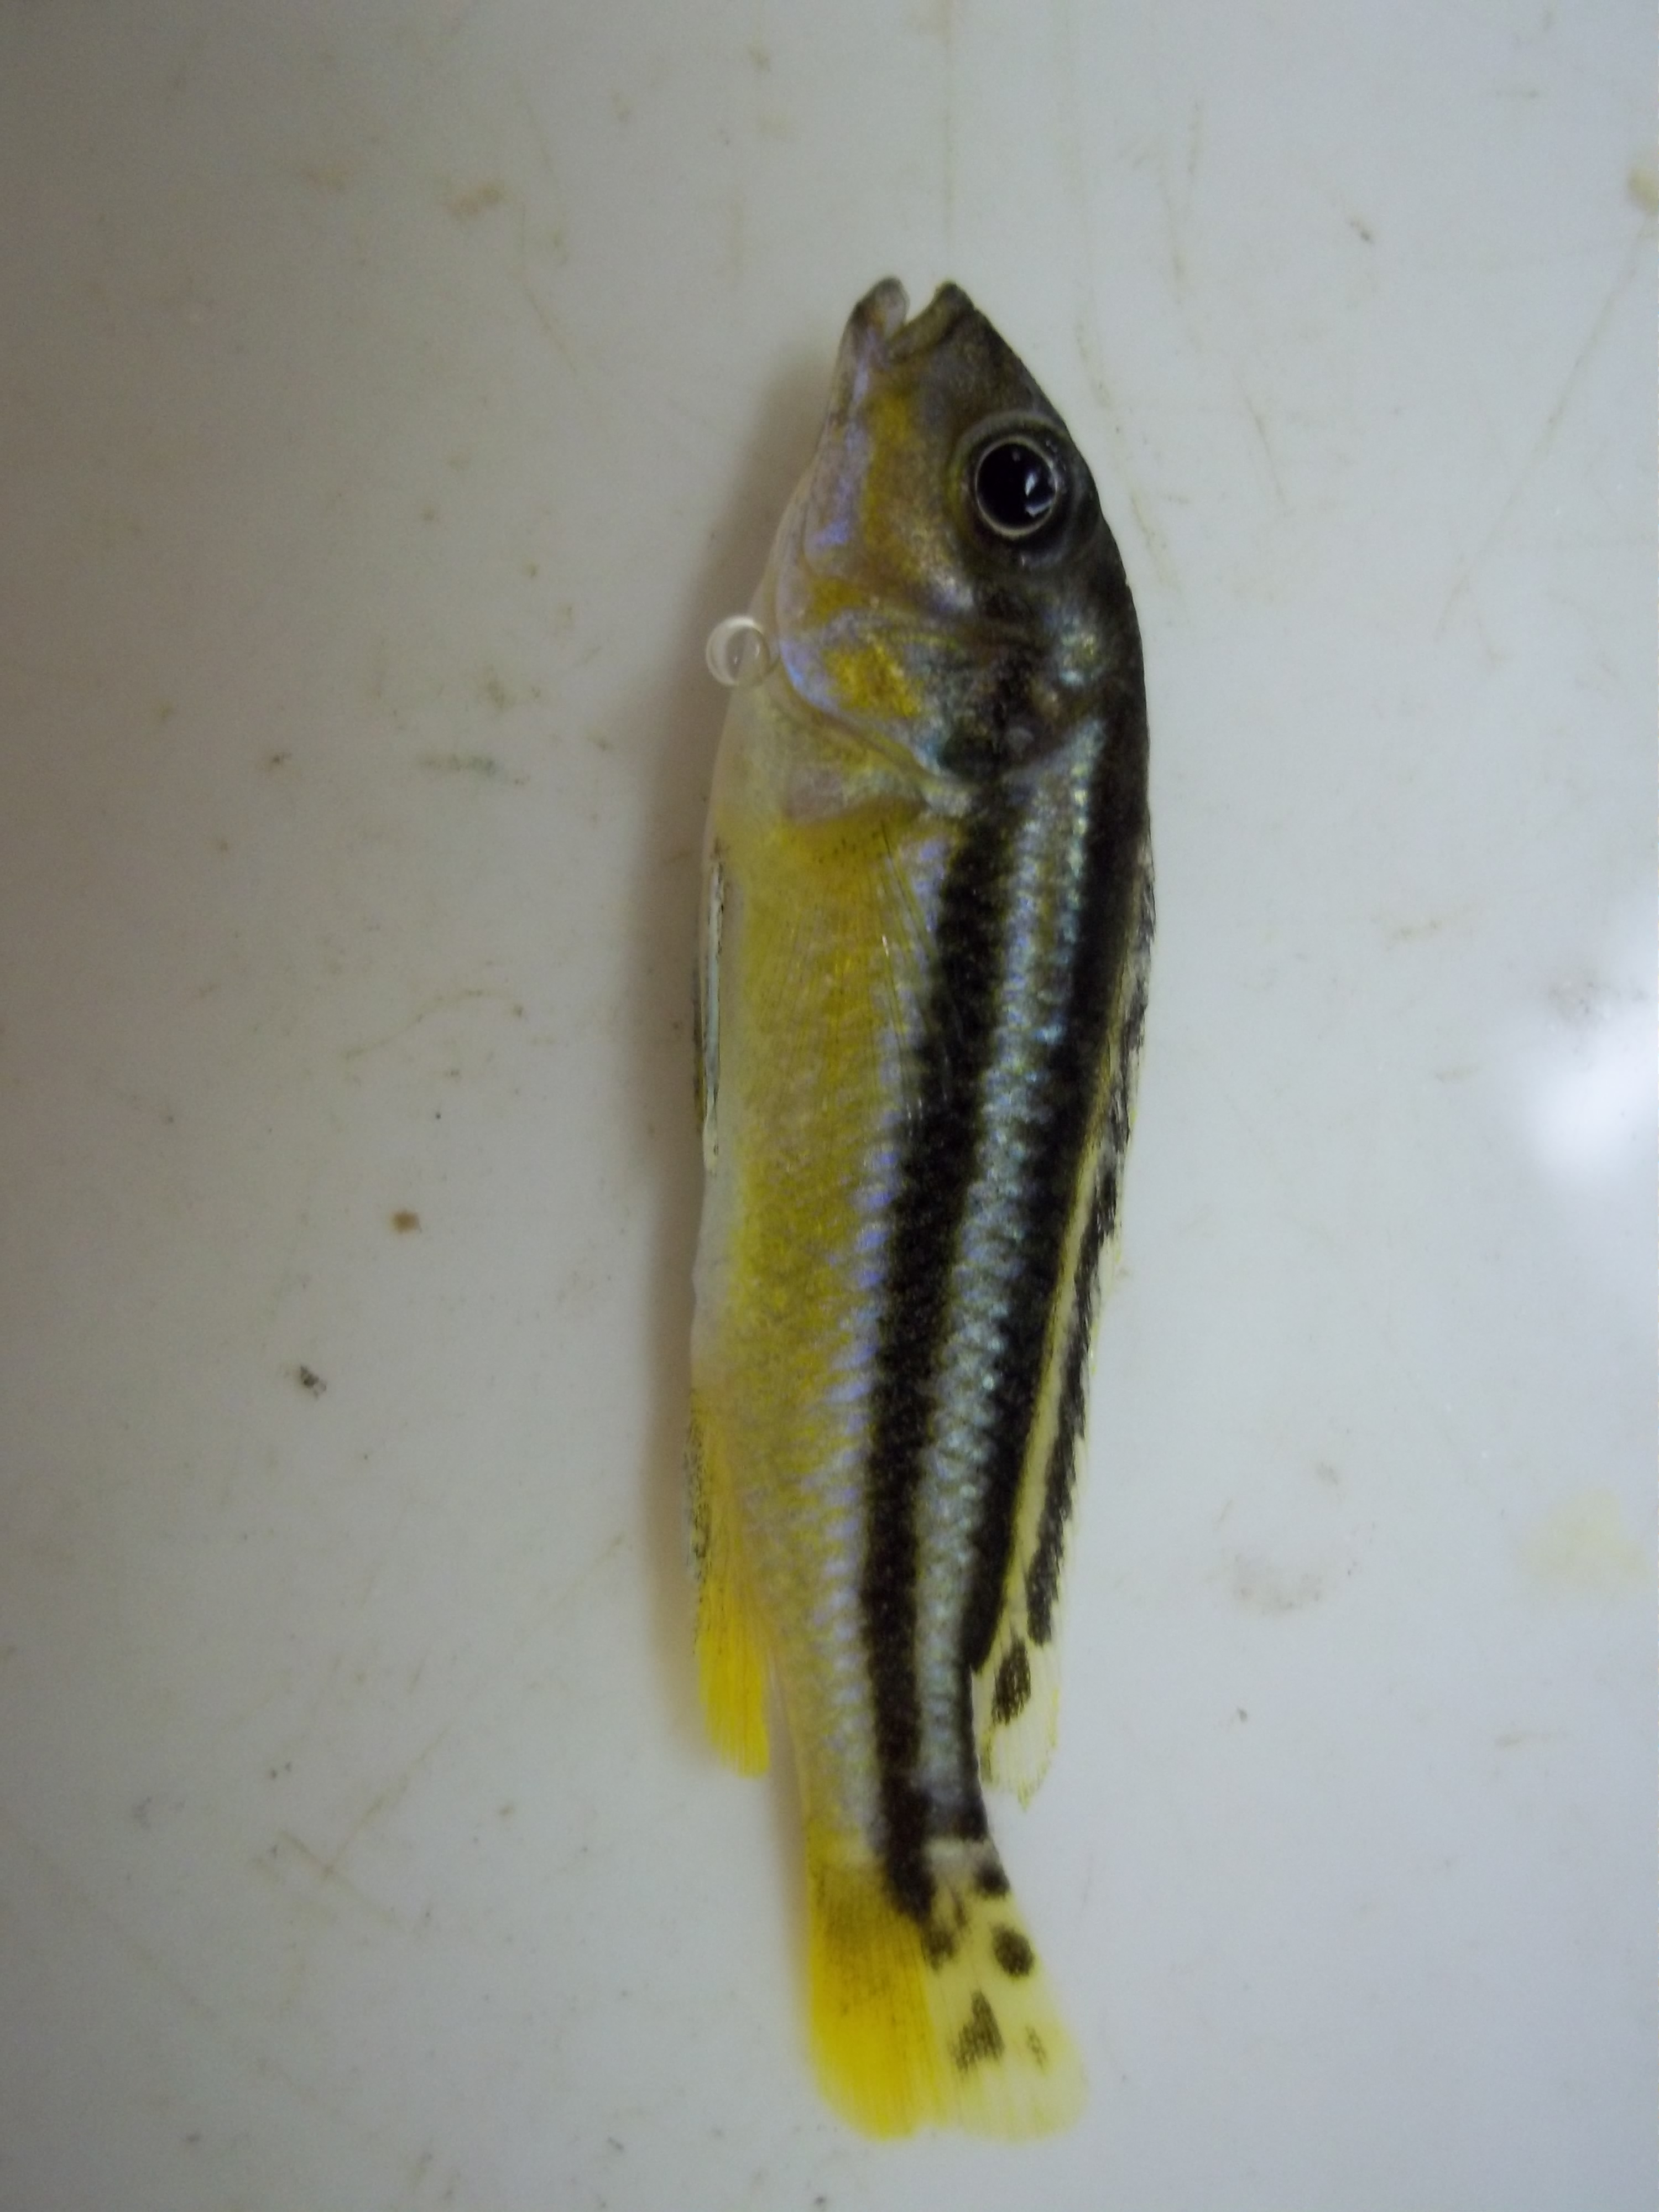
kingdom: Animalia
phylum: Chordata
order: Perciformes
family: Cichlidae
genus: Melanochromis
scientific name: Melanochromis chipokae
